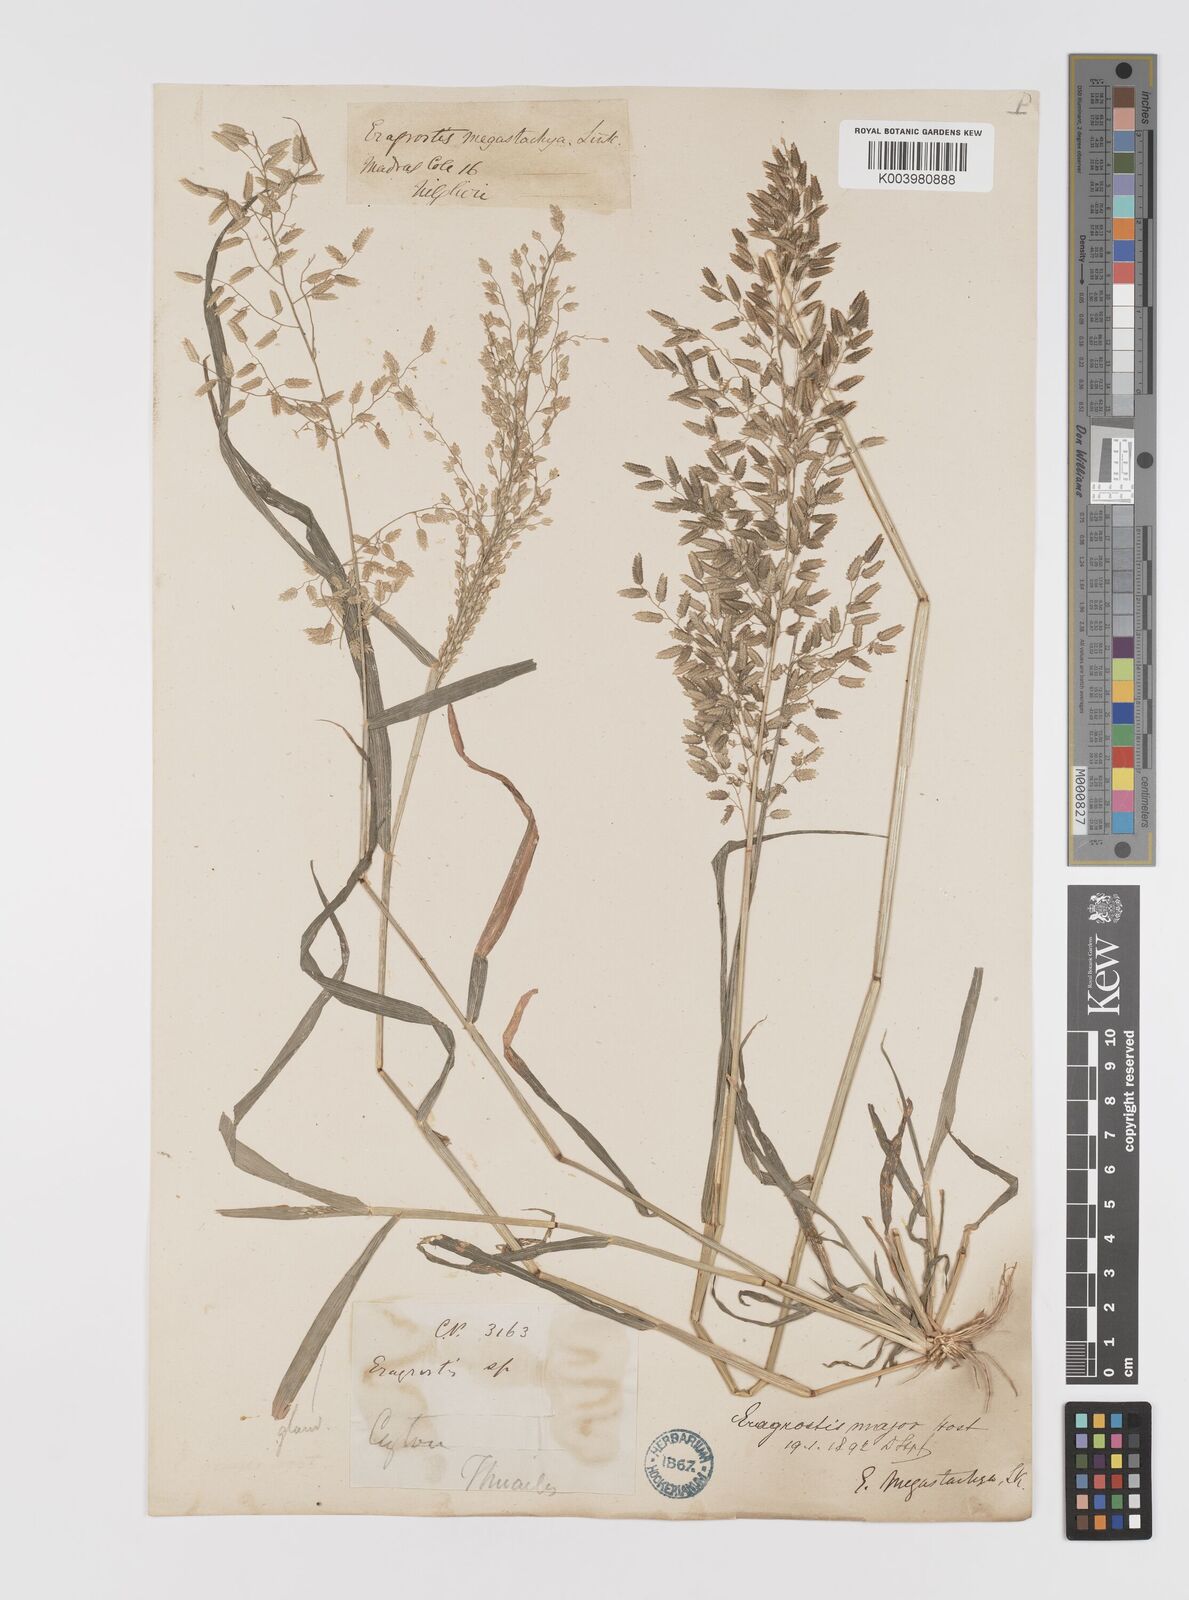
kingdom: Plantae
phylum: Tracheophyta
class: Liliopsida
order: Poales
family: Poaceae
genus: Eragrostis
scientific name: Eragrostis cilianensis
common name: Stinkgrass
